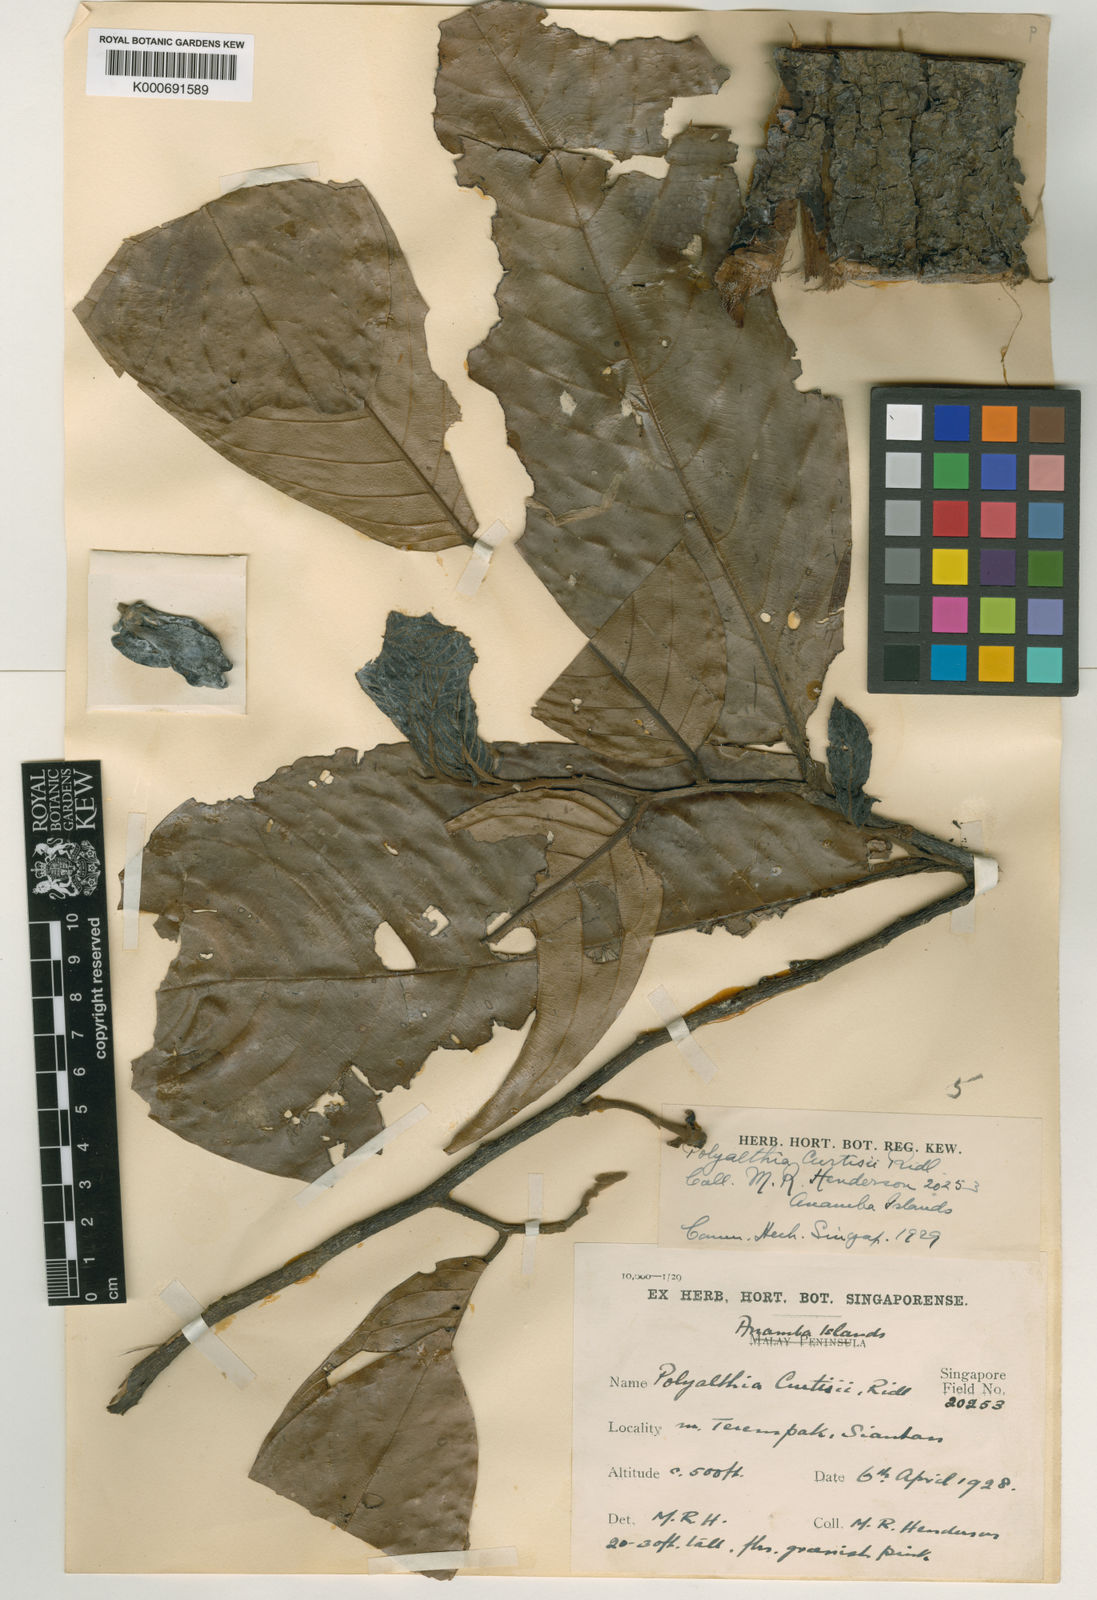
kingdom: Plantae
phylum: Tracheophyta
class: Magnoliopsida
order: Magnoliales
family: Annonaceae
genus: Polyalthia
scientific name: Polyalthia glabra
